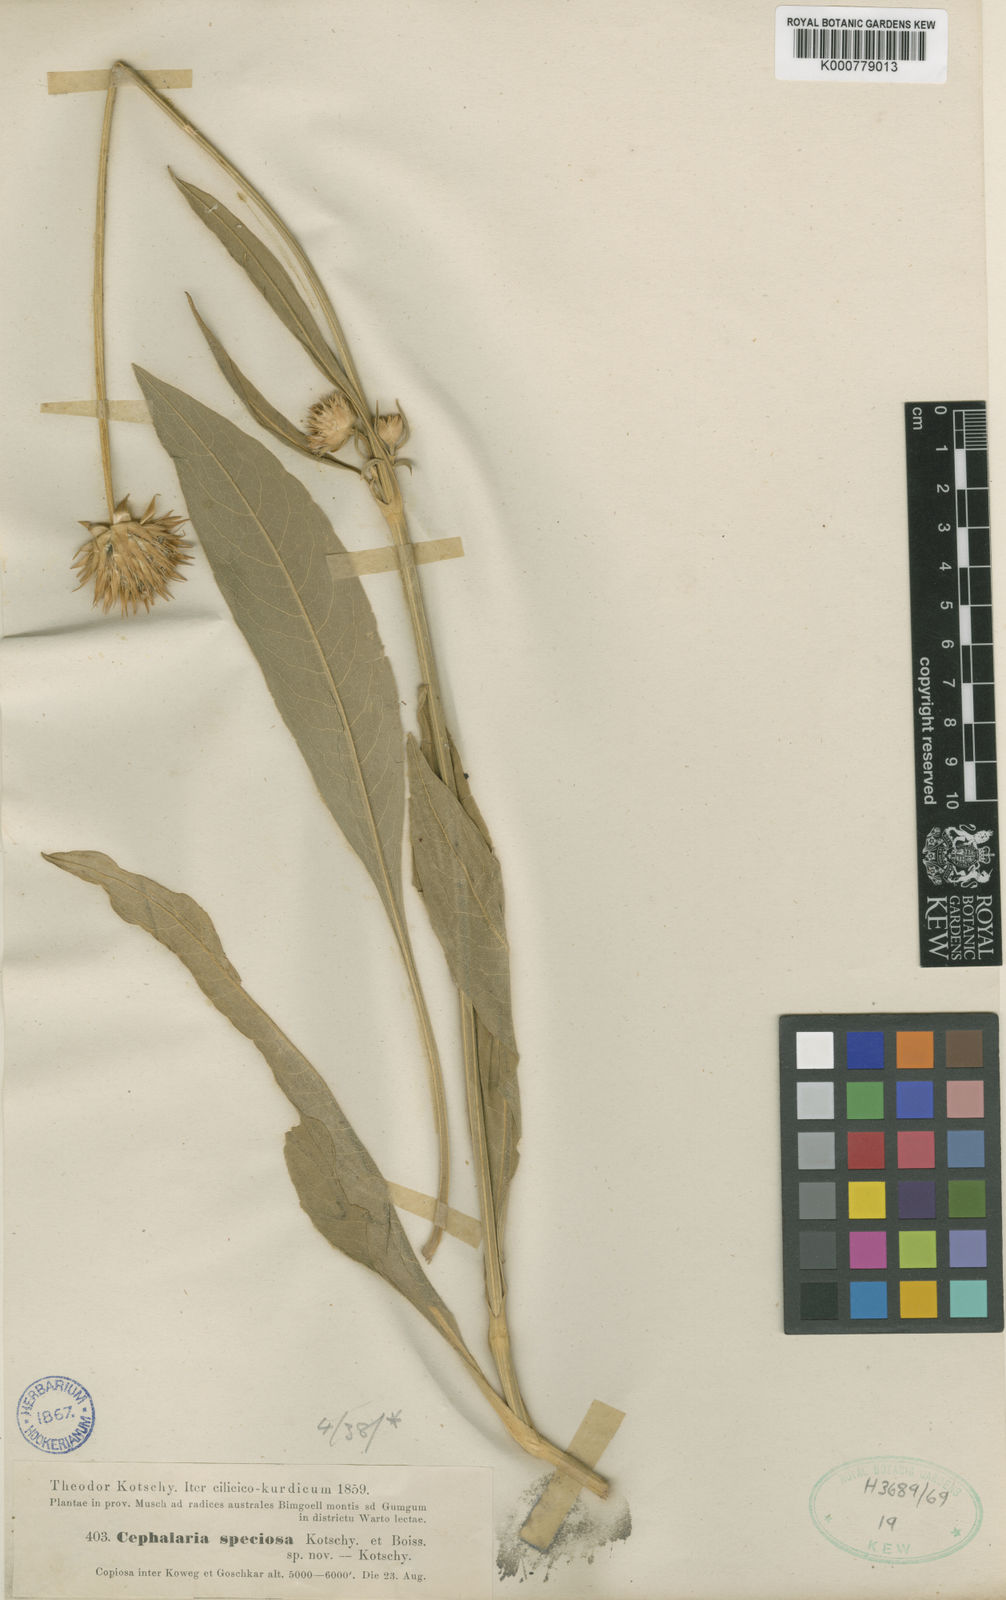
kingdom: Plantae
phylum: Tracheophyta
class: Magnoliopsida
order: Dipsacales
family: Caprifoliaceae
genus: Cephalaria
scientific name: Cephalaria media
